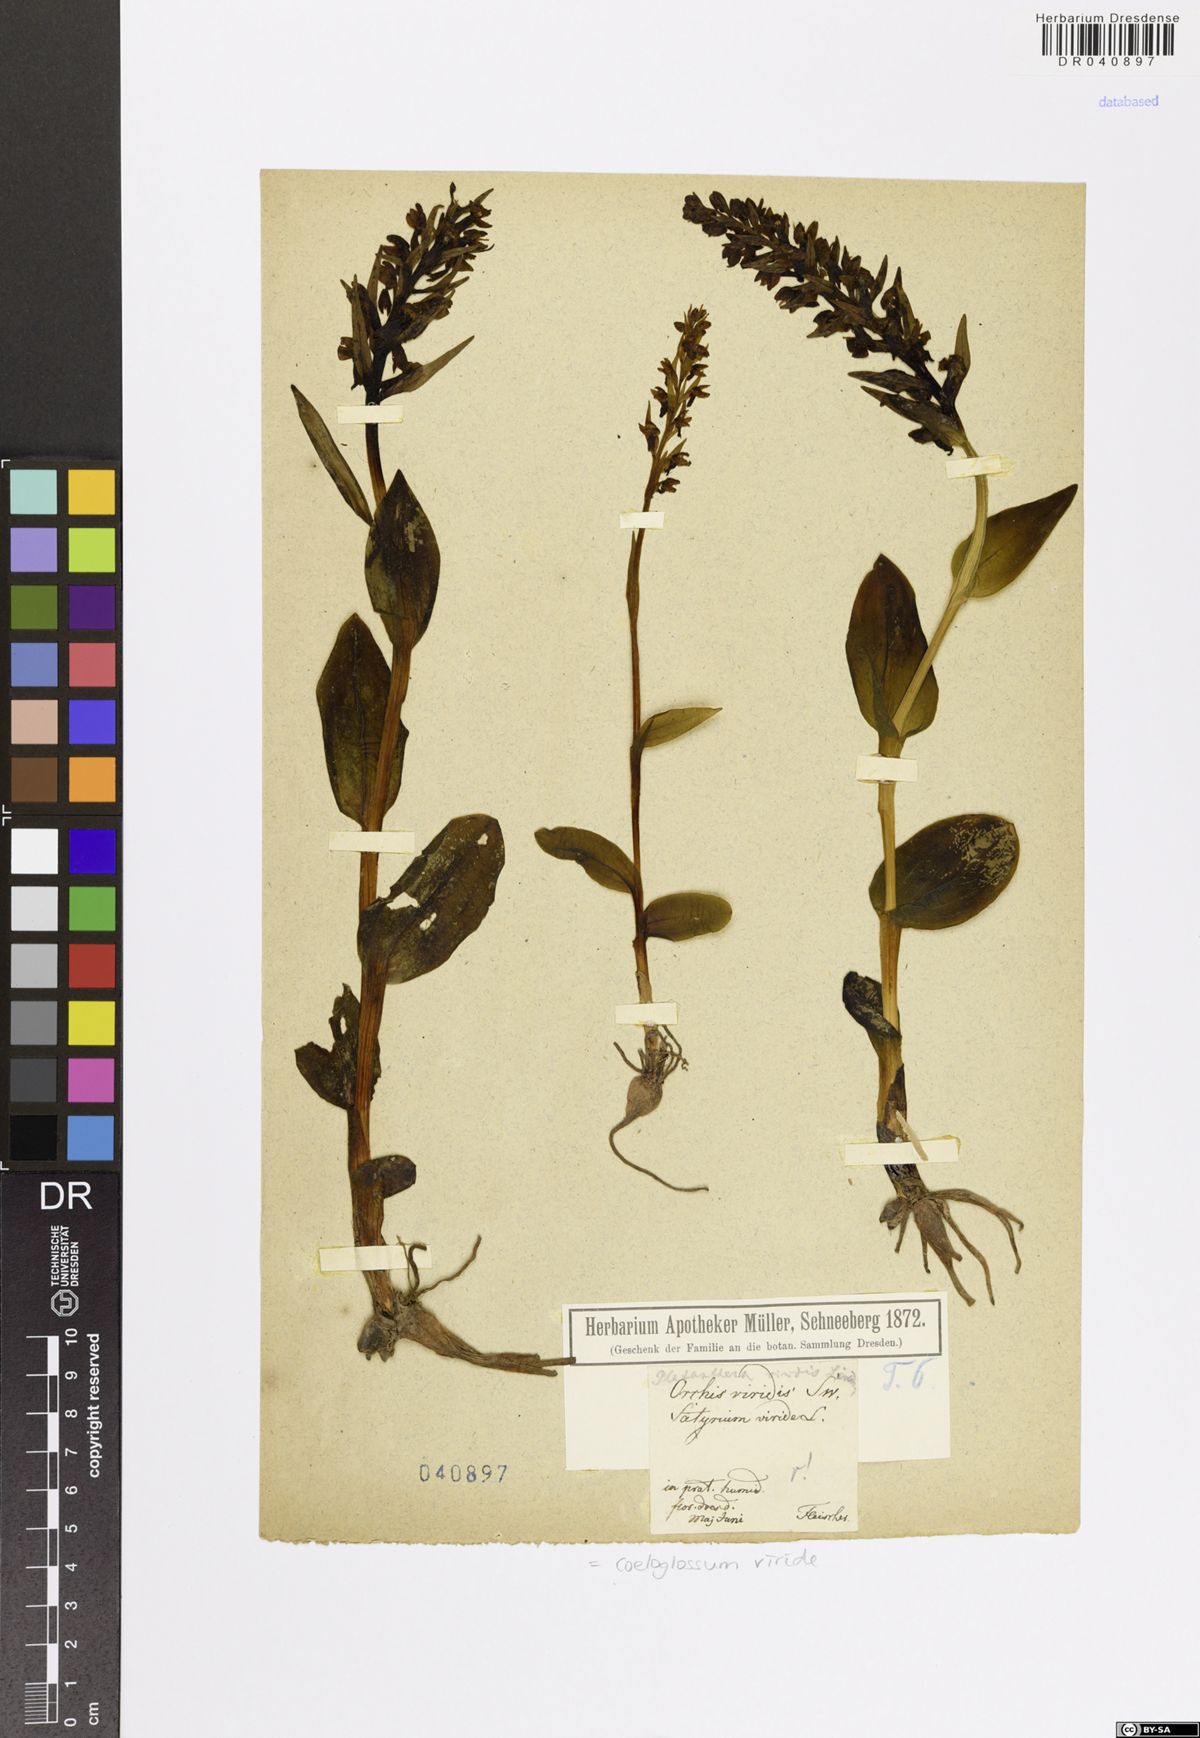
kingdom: Plantae
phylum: Tracheophyta
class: Liliopsida
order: Asparagales
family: Orchidaceae
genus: Dactylorhiza
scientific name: Dactylorhiza viridis
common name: Longbract frog orchid
